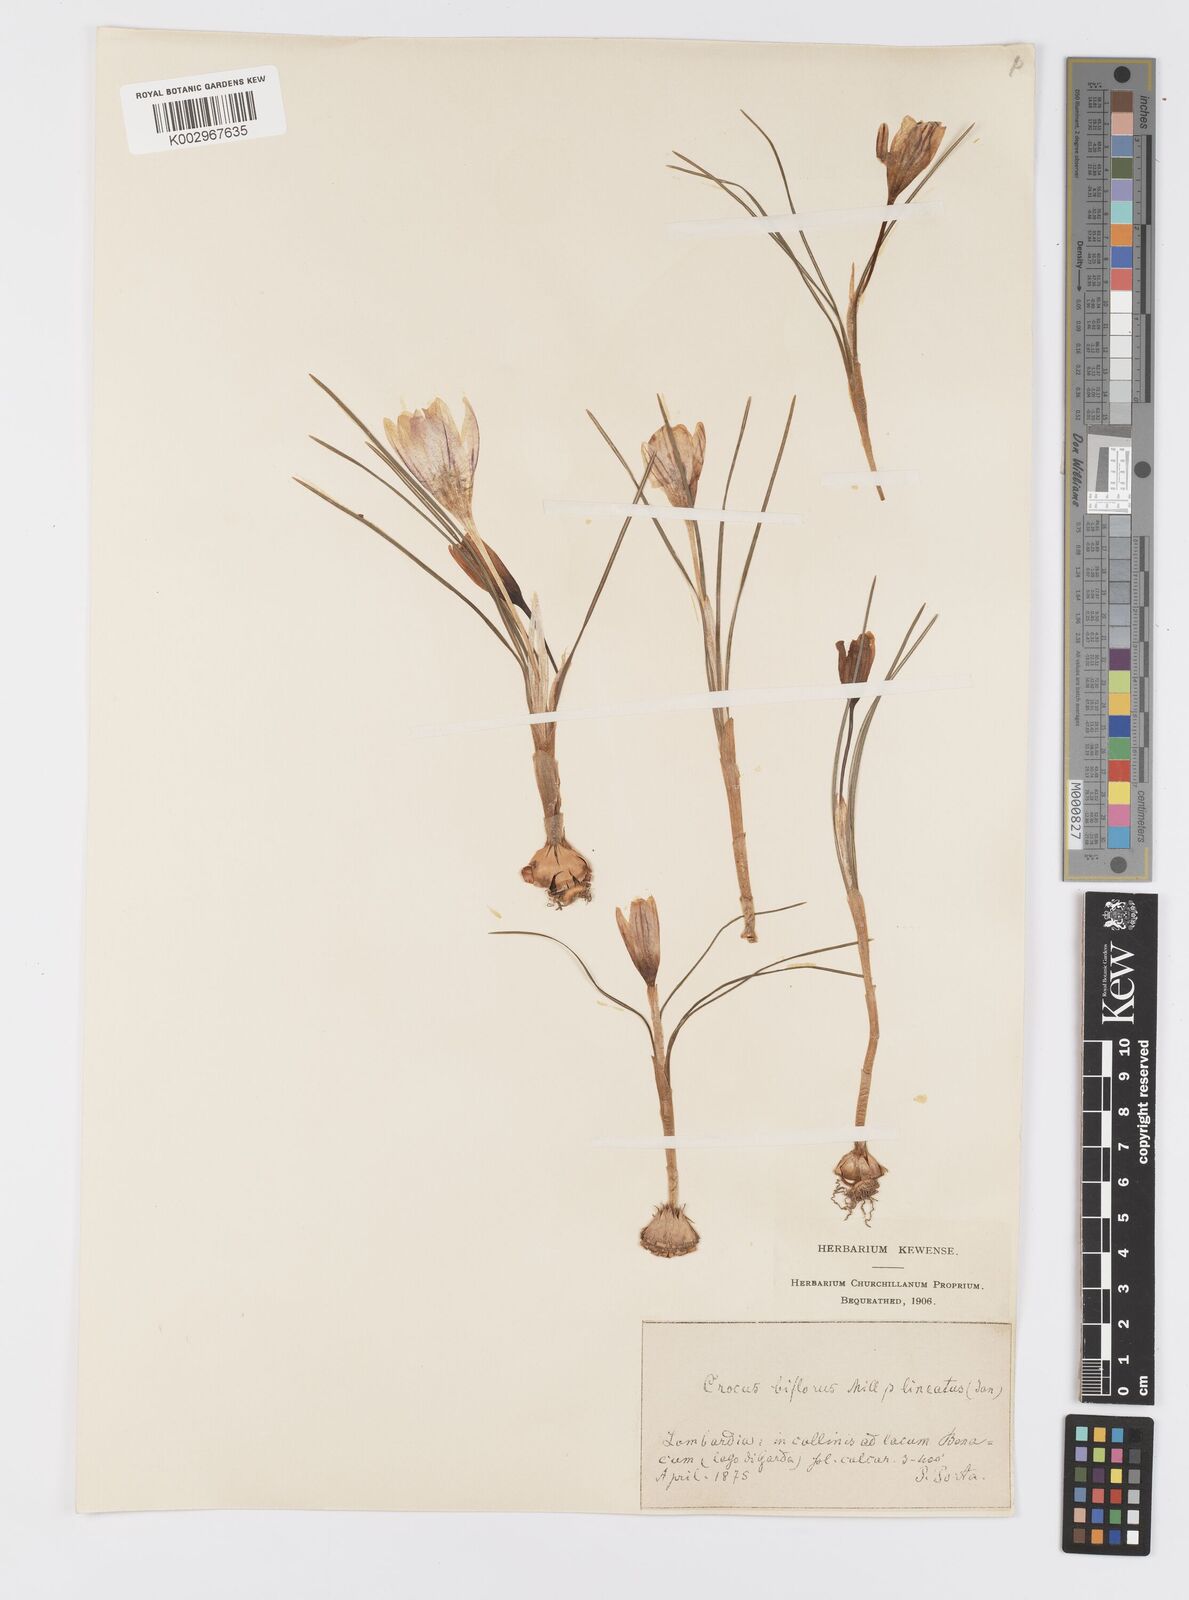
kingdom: Plantae
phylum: Tracheophyta
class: Liliopsida
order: Asparagales
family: Iridaceae
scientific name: Iridaceae
